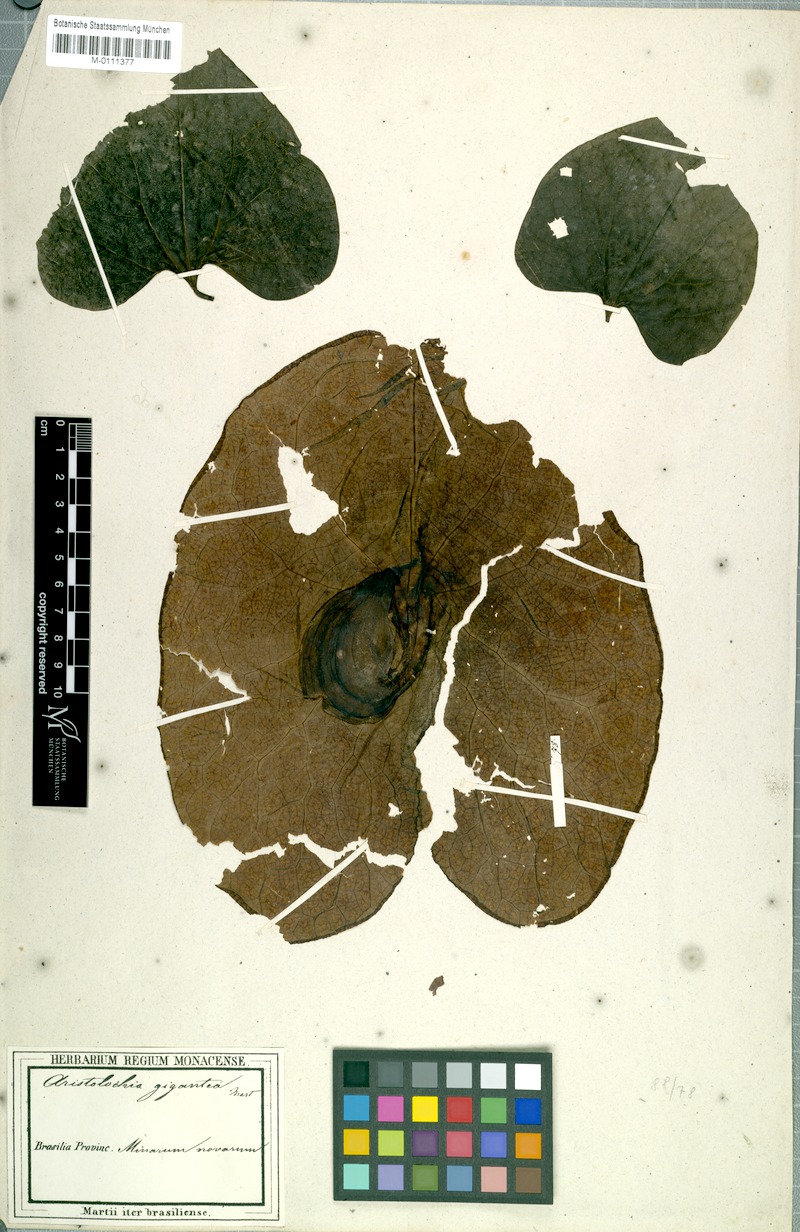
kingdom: Plantae
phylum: Tracheophyta
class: Magnoliopsida
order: Piperales
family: Aristolochiaceae
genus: Aristolochia
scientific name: Aristolochia gigantea
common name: Duckflower
